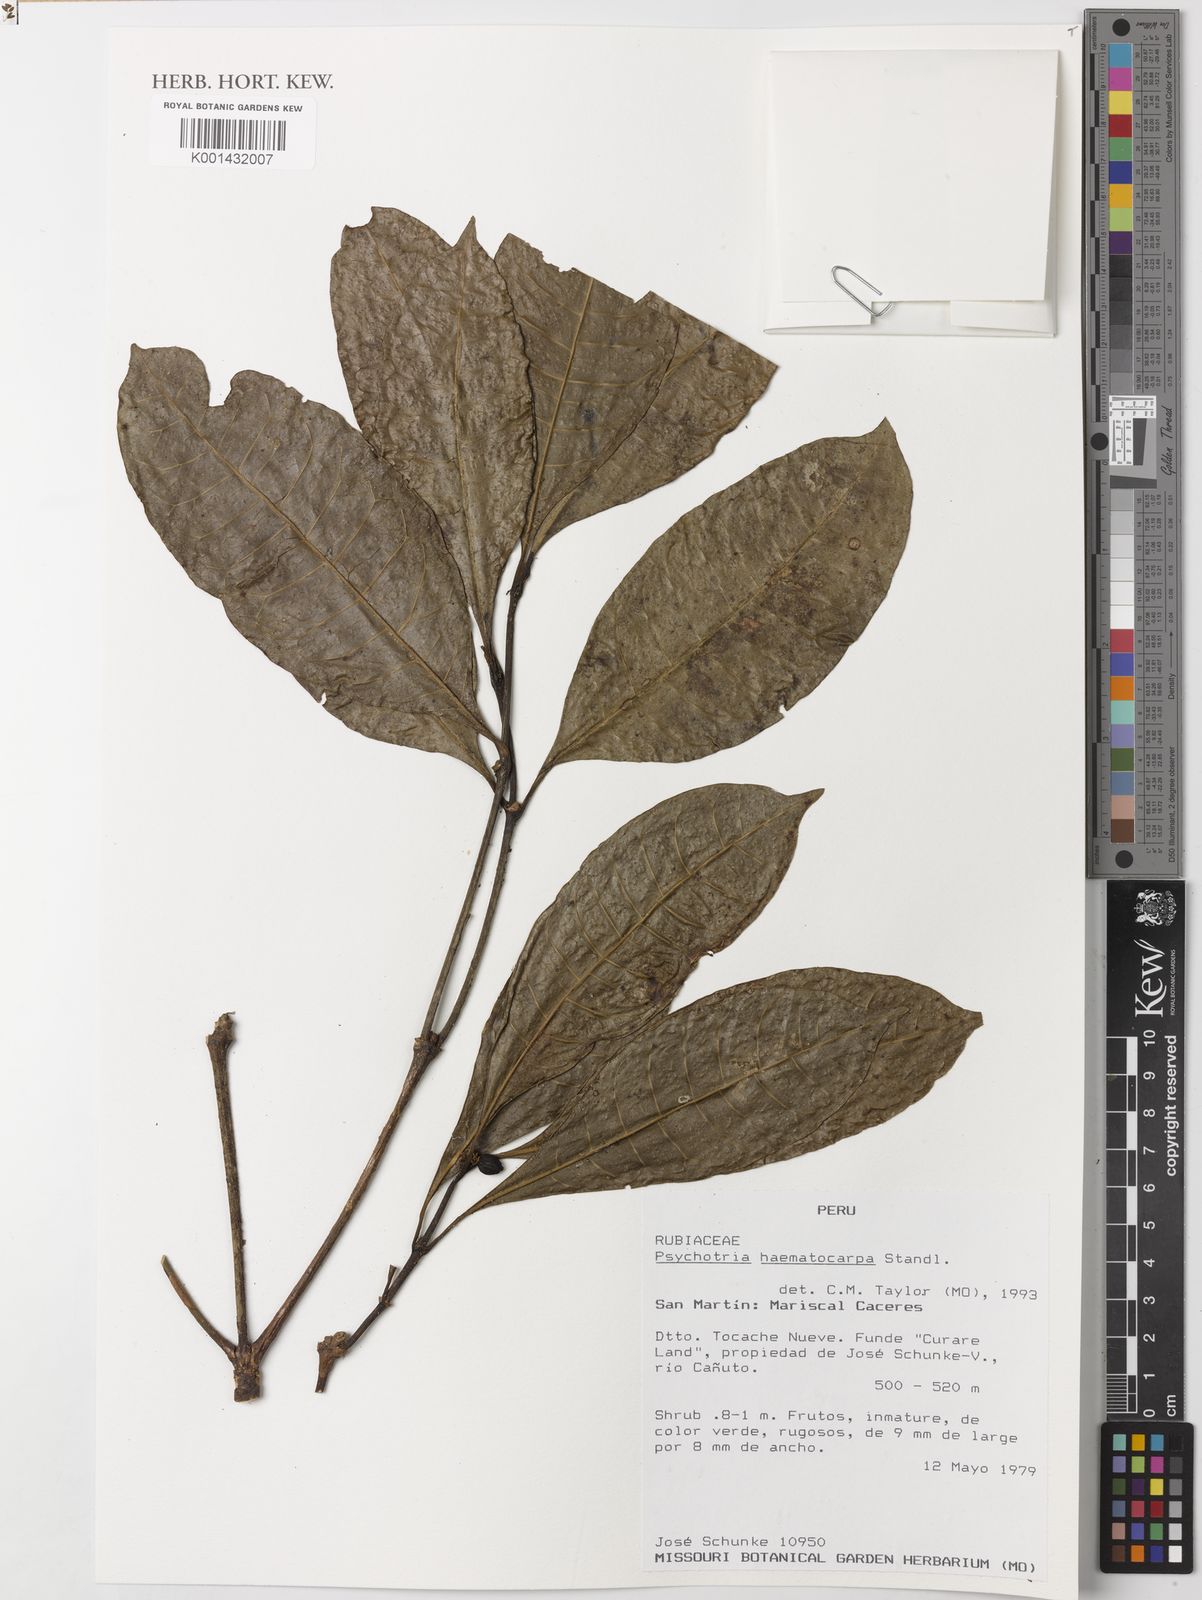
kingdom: Plantae
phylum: Tracheophyta
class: Magnoliopsida
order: Gentianales
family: Rubiaceae
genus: Eumachia
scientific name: Eumachia haematocarpa
